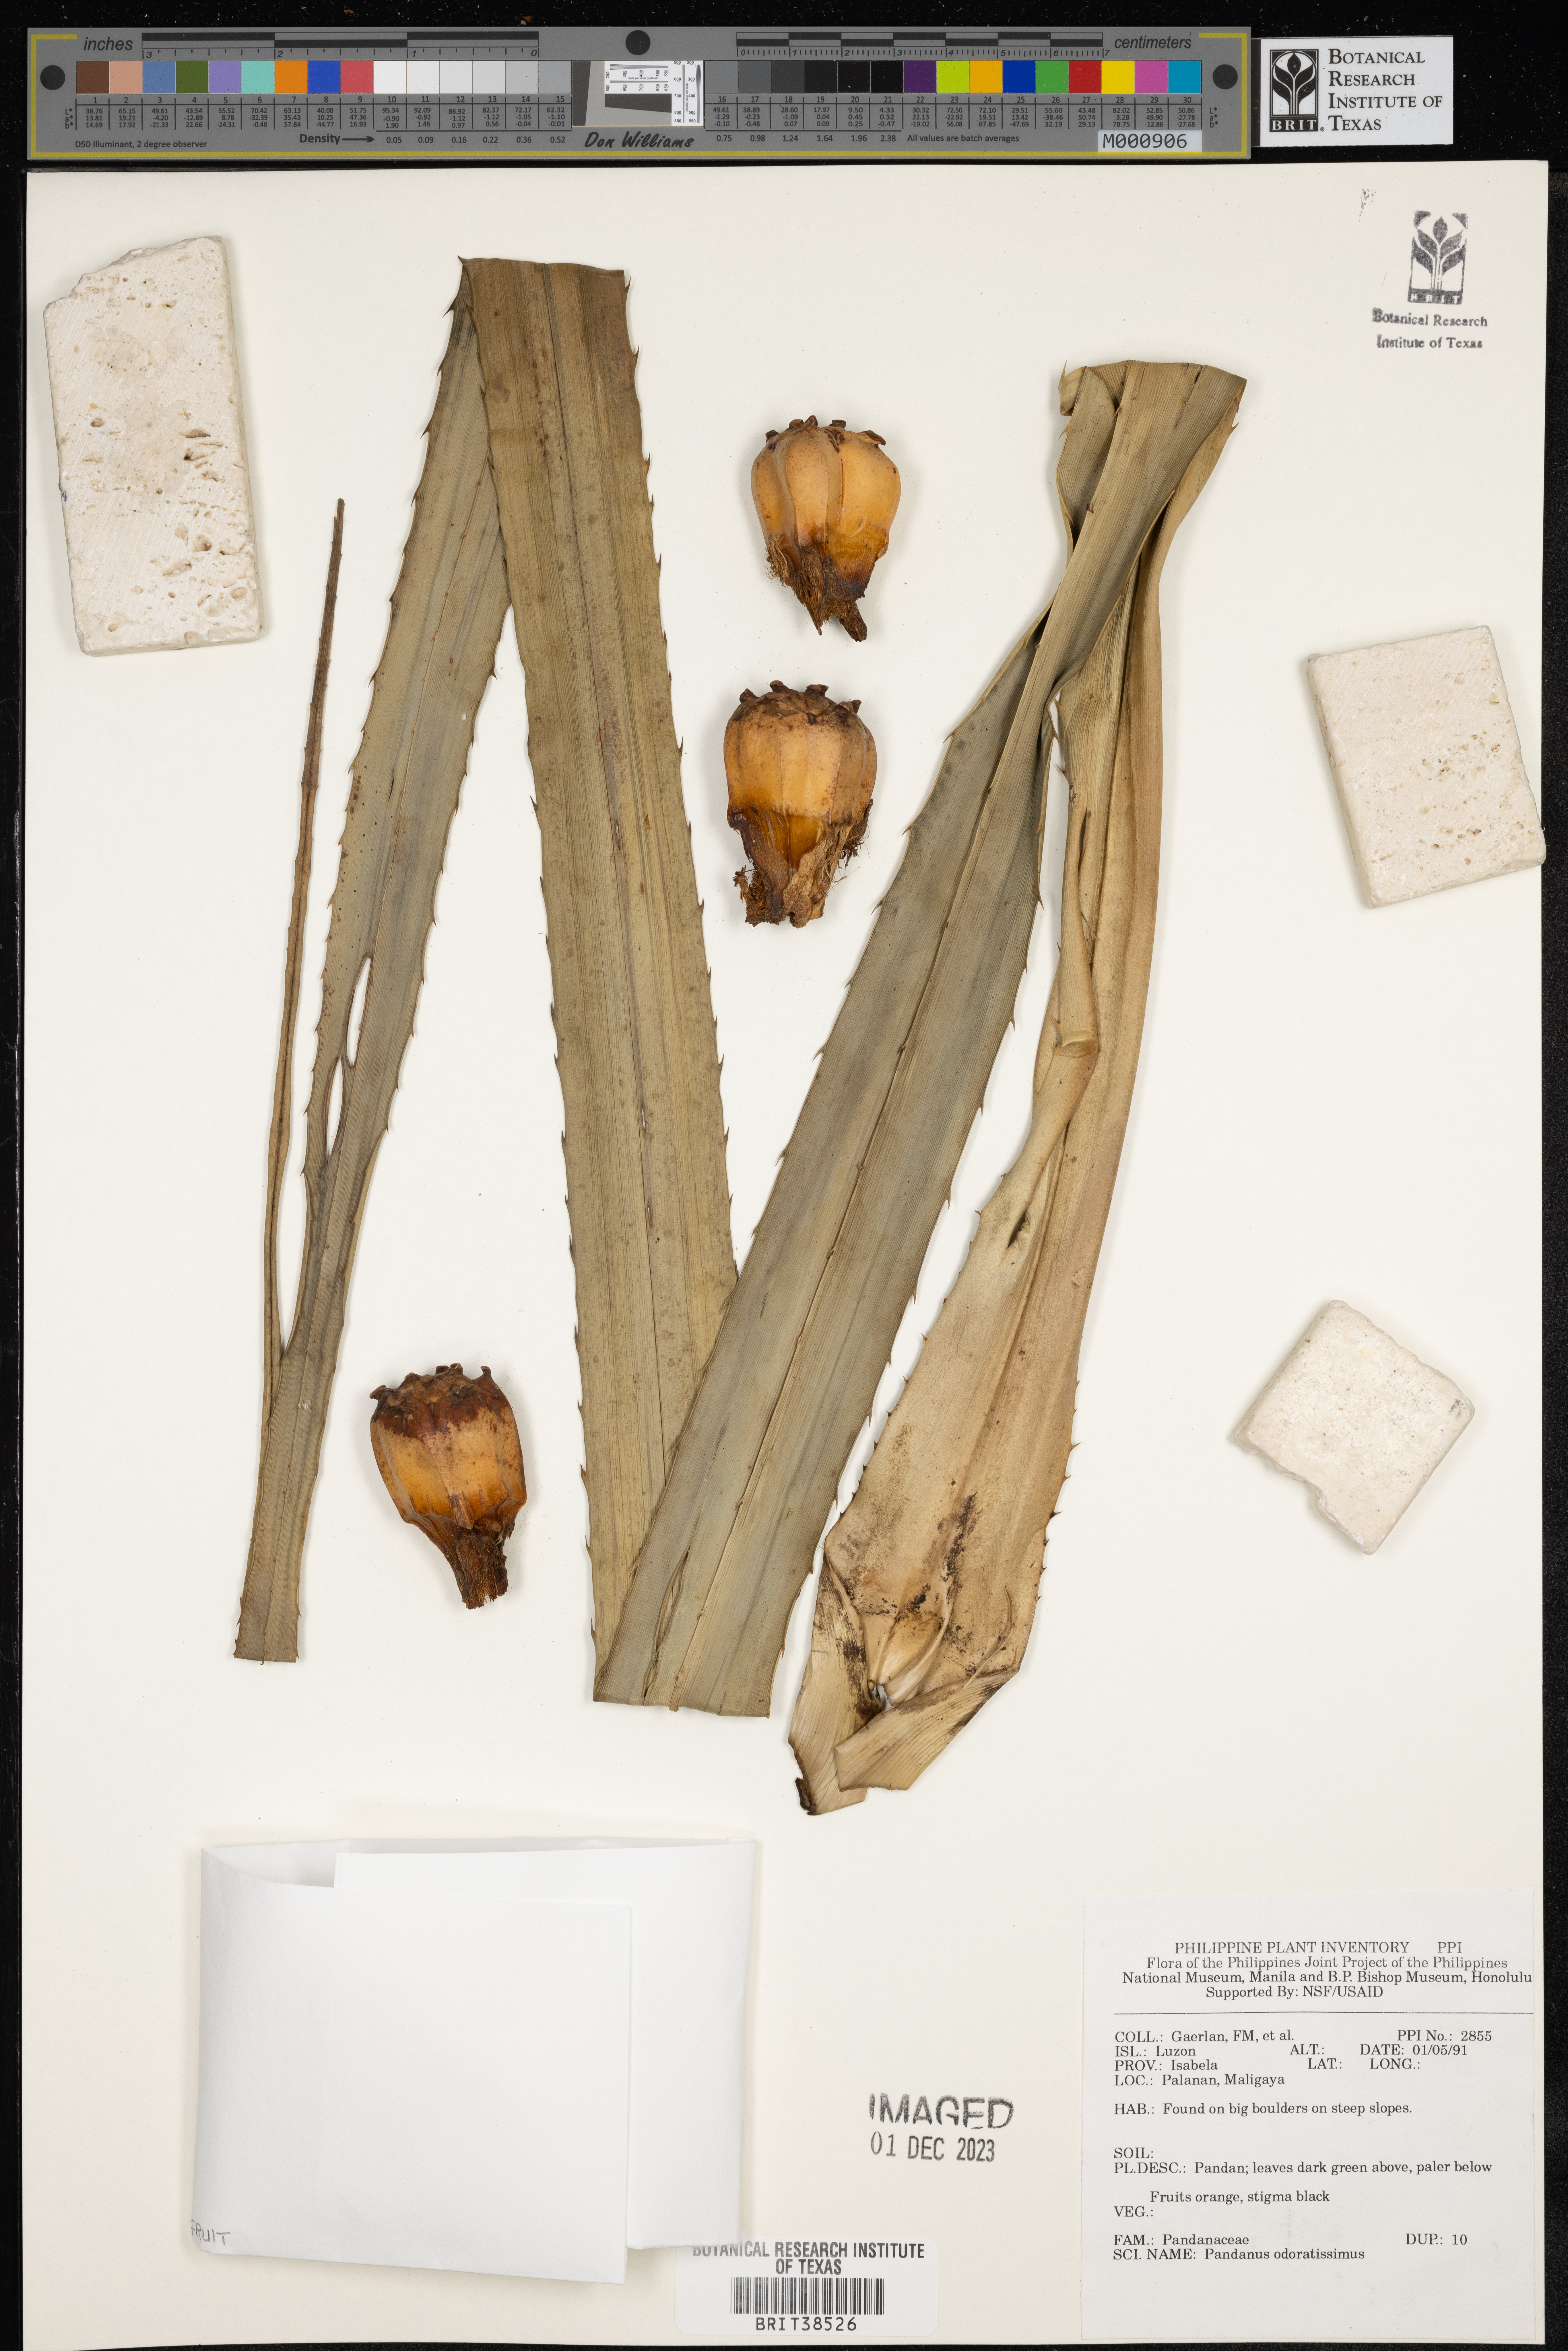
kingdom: Plantae
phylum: Tracheophyta
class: Liliopsida
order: Pandanales
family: Pandanaceae
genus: Pandanus
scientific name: Pandanus odoratissimus
